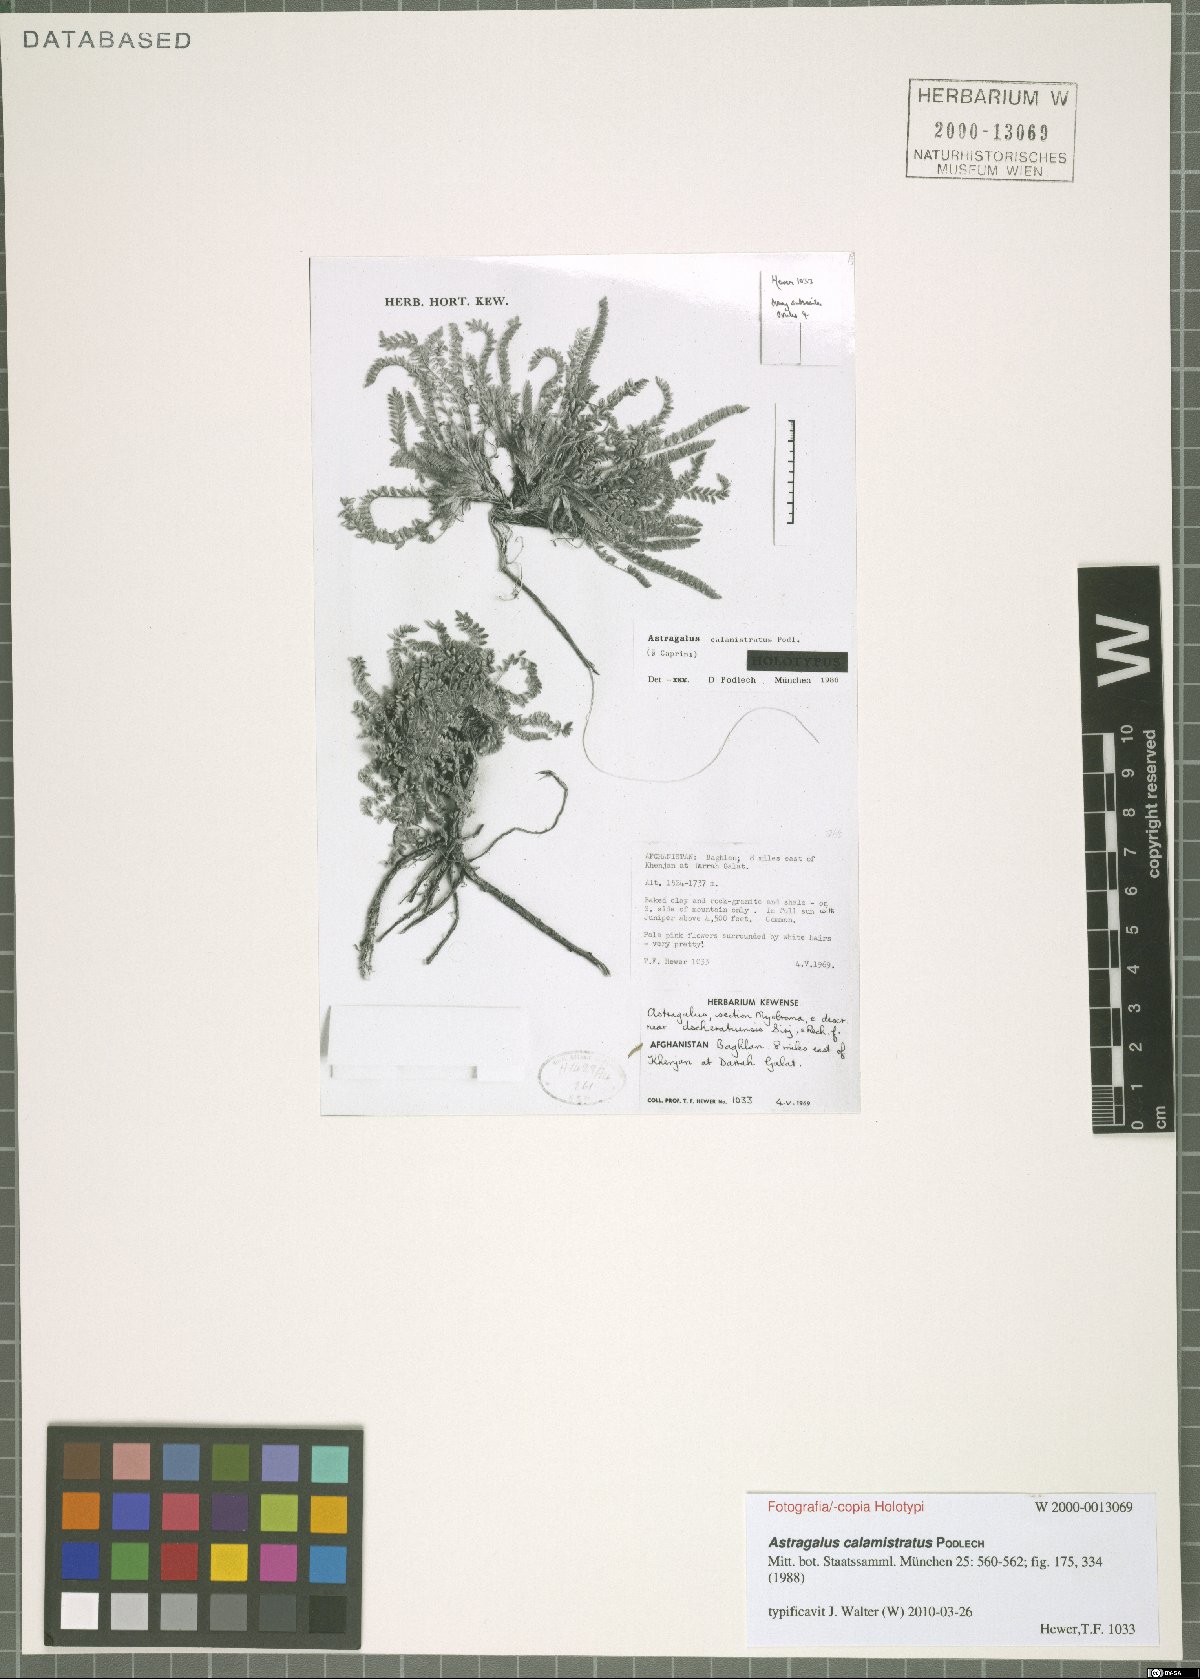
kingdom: Plantae
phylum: Tracheophyta
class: Magnoliopsida
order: Fabales
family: Fabaceae
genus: Astragalus
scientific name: Astragalus calamistratus
